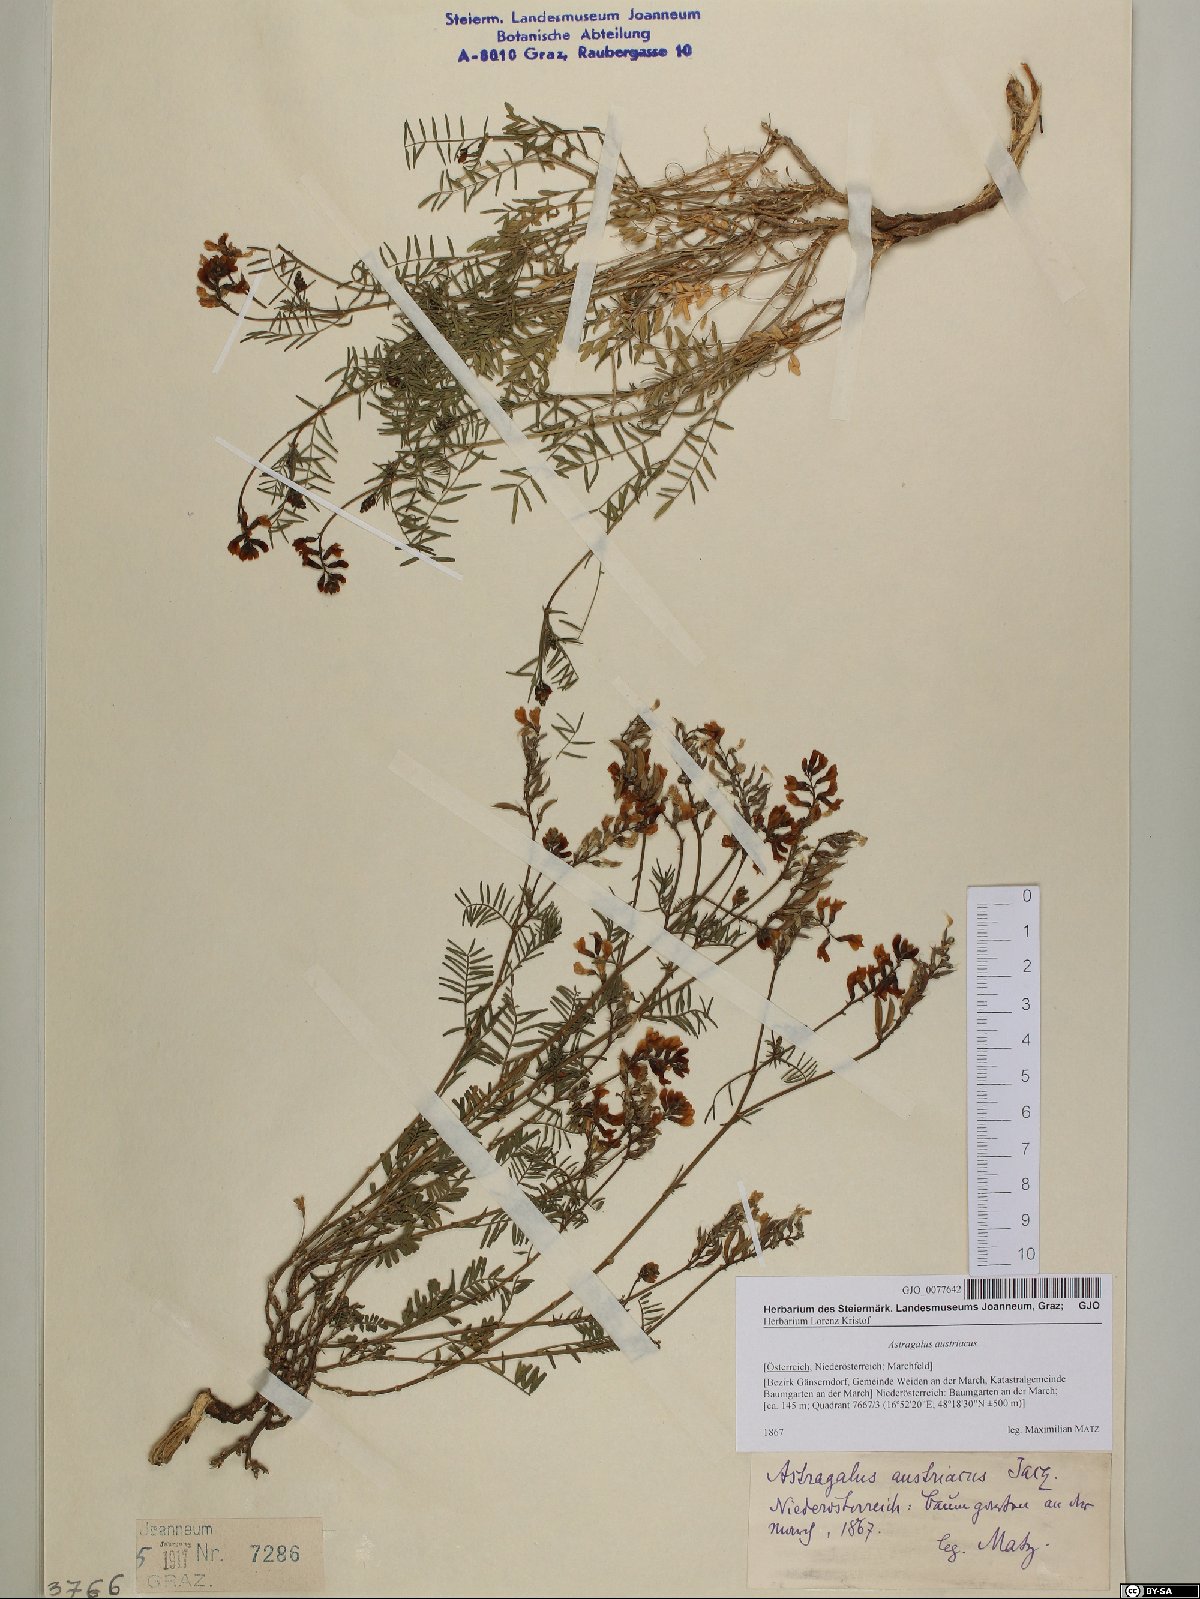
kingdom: Plantae
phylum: Tracheophyta
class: Magnoliopsida
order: Fabales
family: Fabaceae
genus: Astragalus
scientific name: Astragalus austriacus
